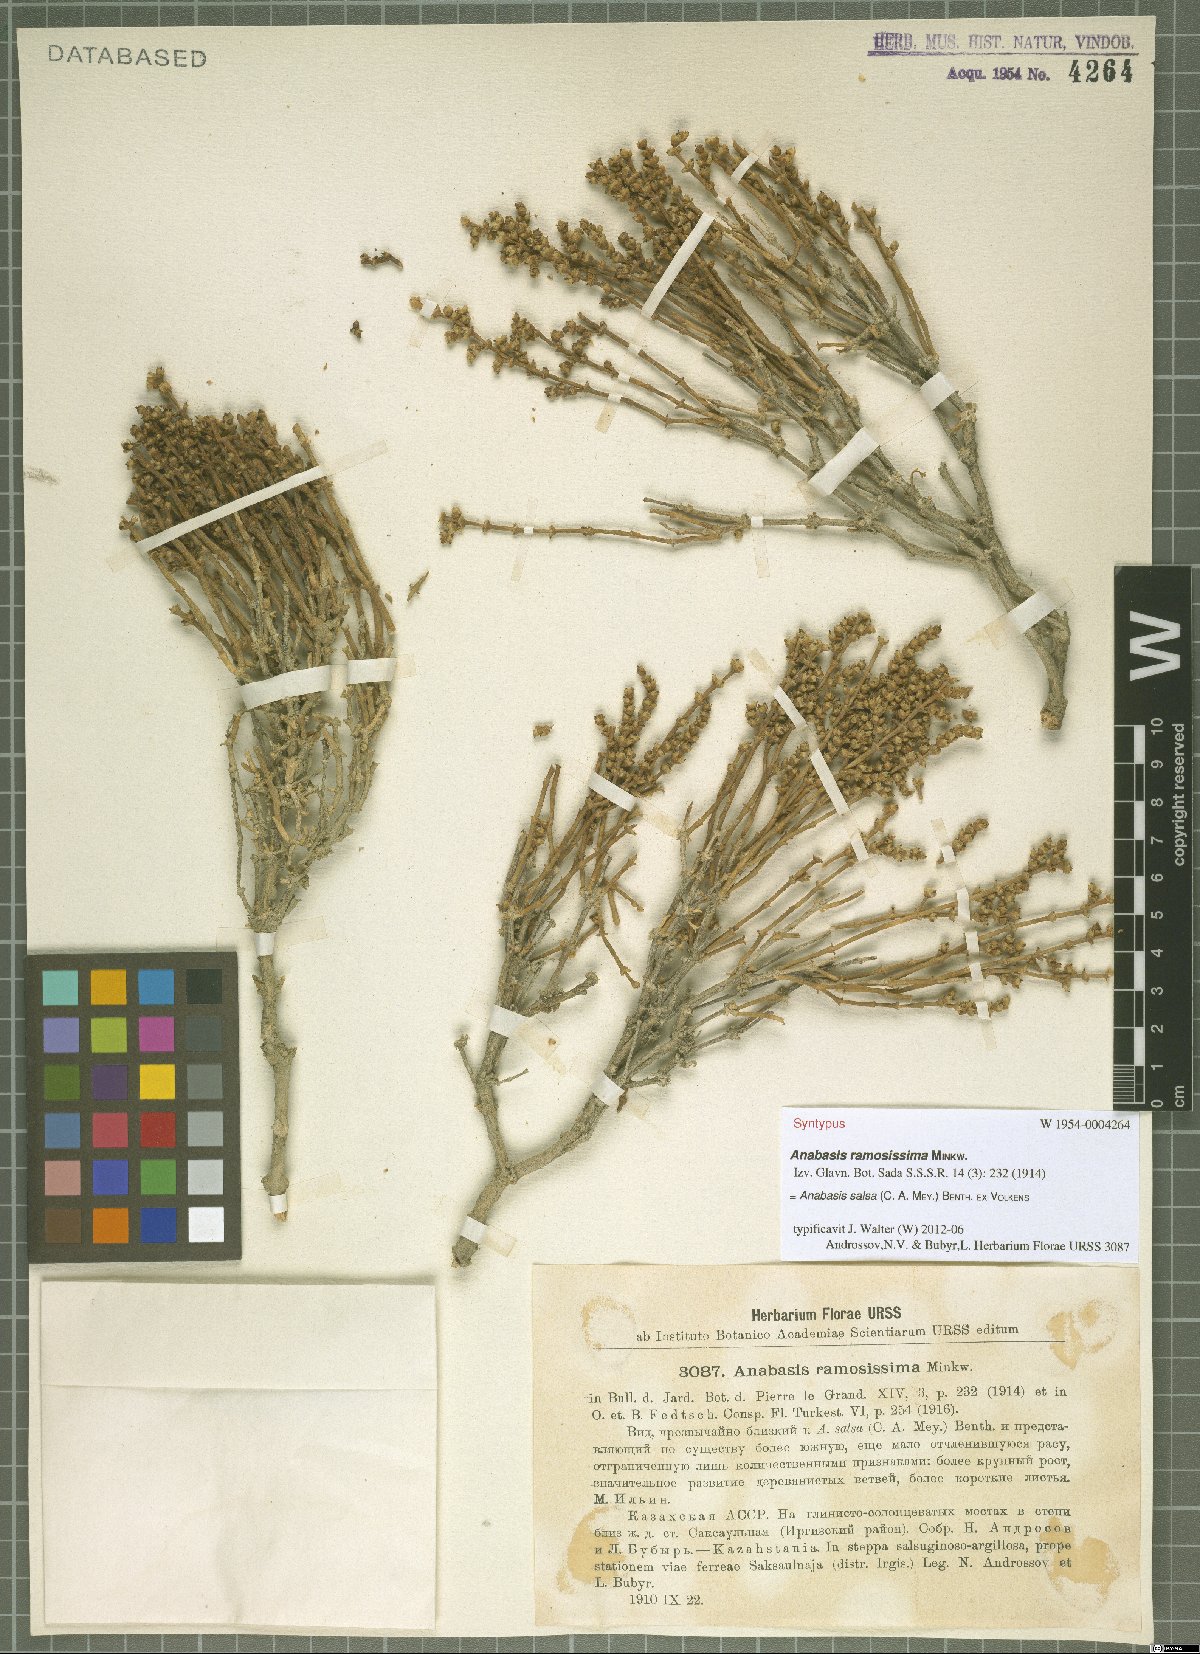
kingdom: Plantae
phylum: Tracheophyta
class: Magnoliopsida
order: Caryophyllales
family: Amaranthaceae
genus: Anabasis
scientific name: Anabasis salsa
